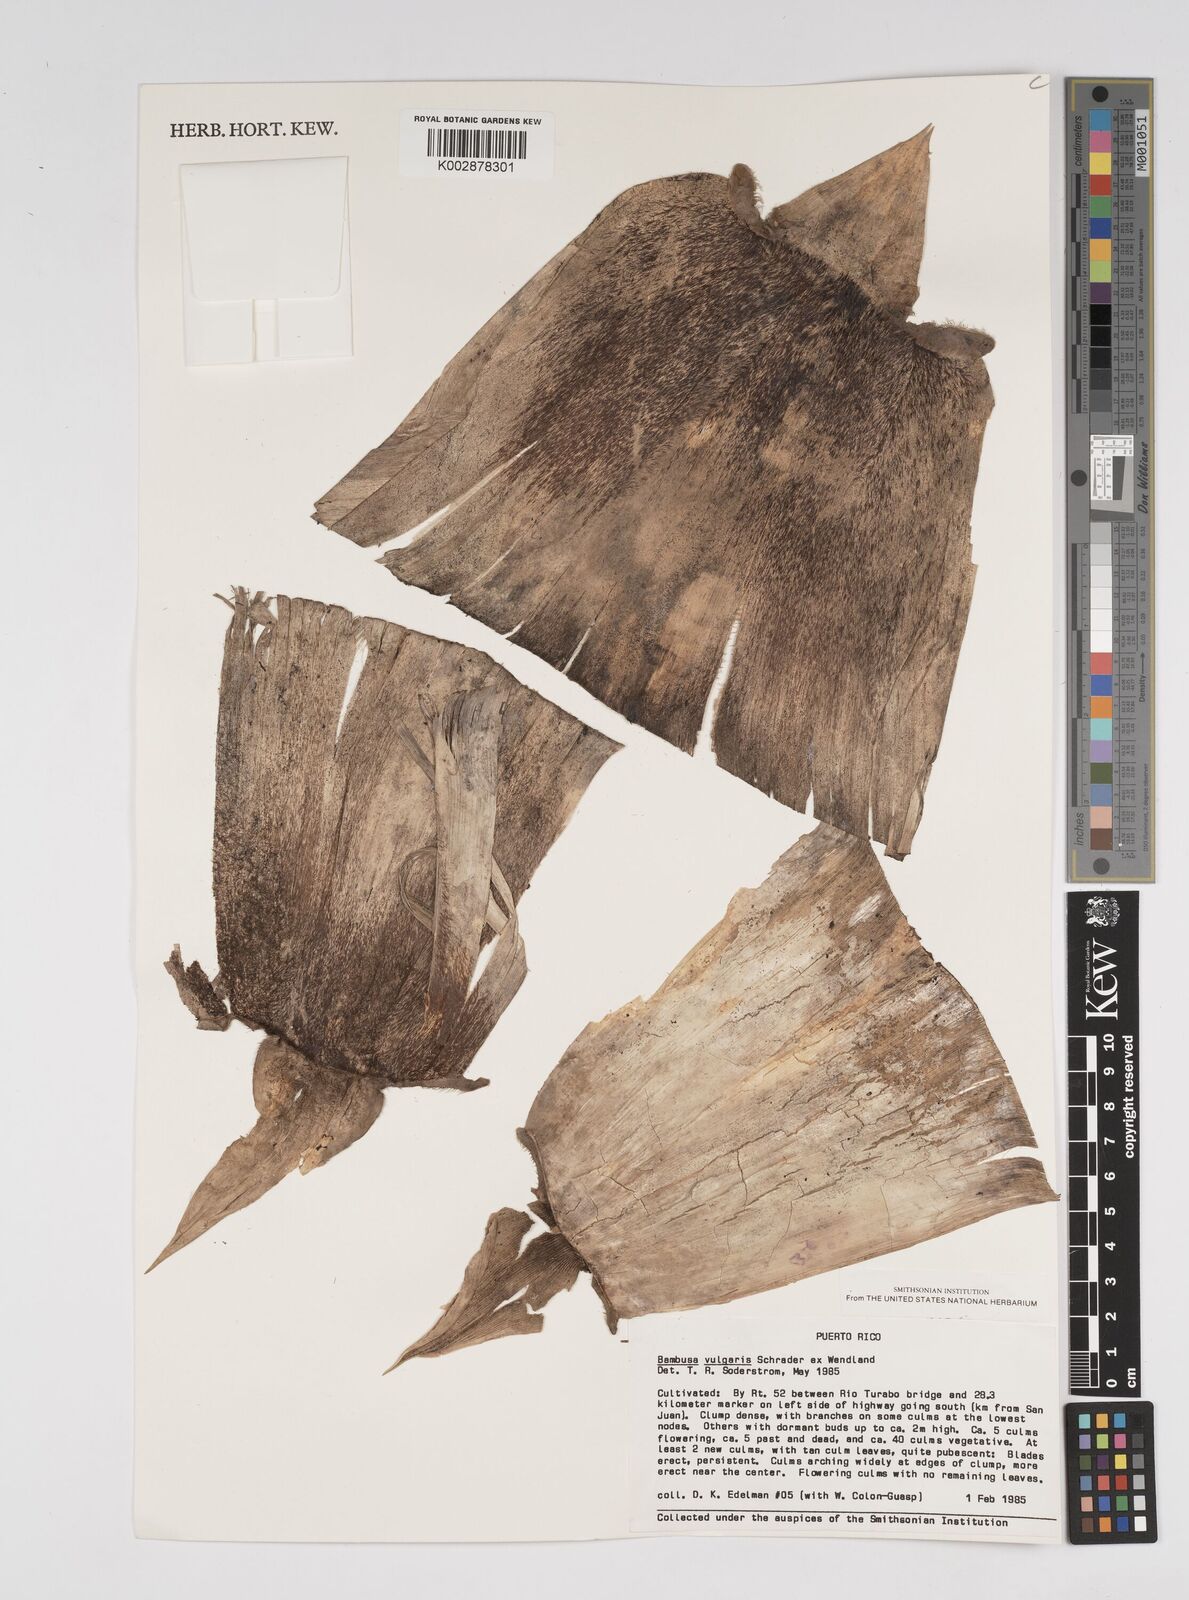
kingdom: Plantae
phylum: Tracheophyta
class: Liliopsida
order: Poales
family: Poaceae
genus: Bambusa
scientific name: Bambusa vulgaris
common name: Common bamboo
